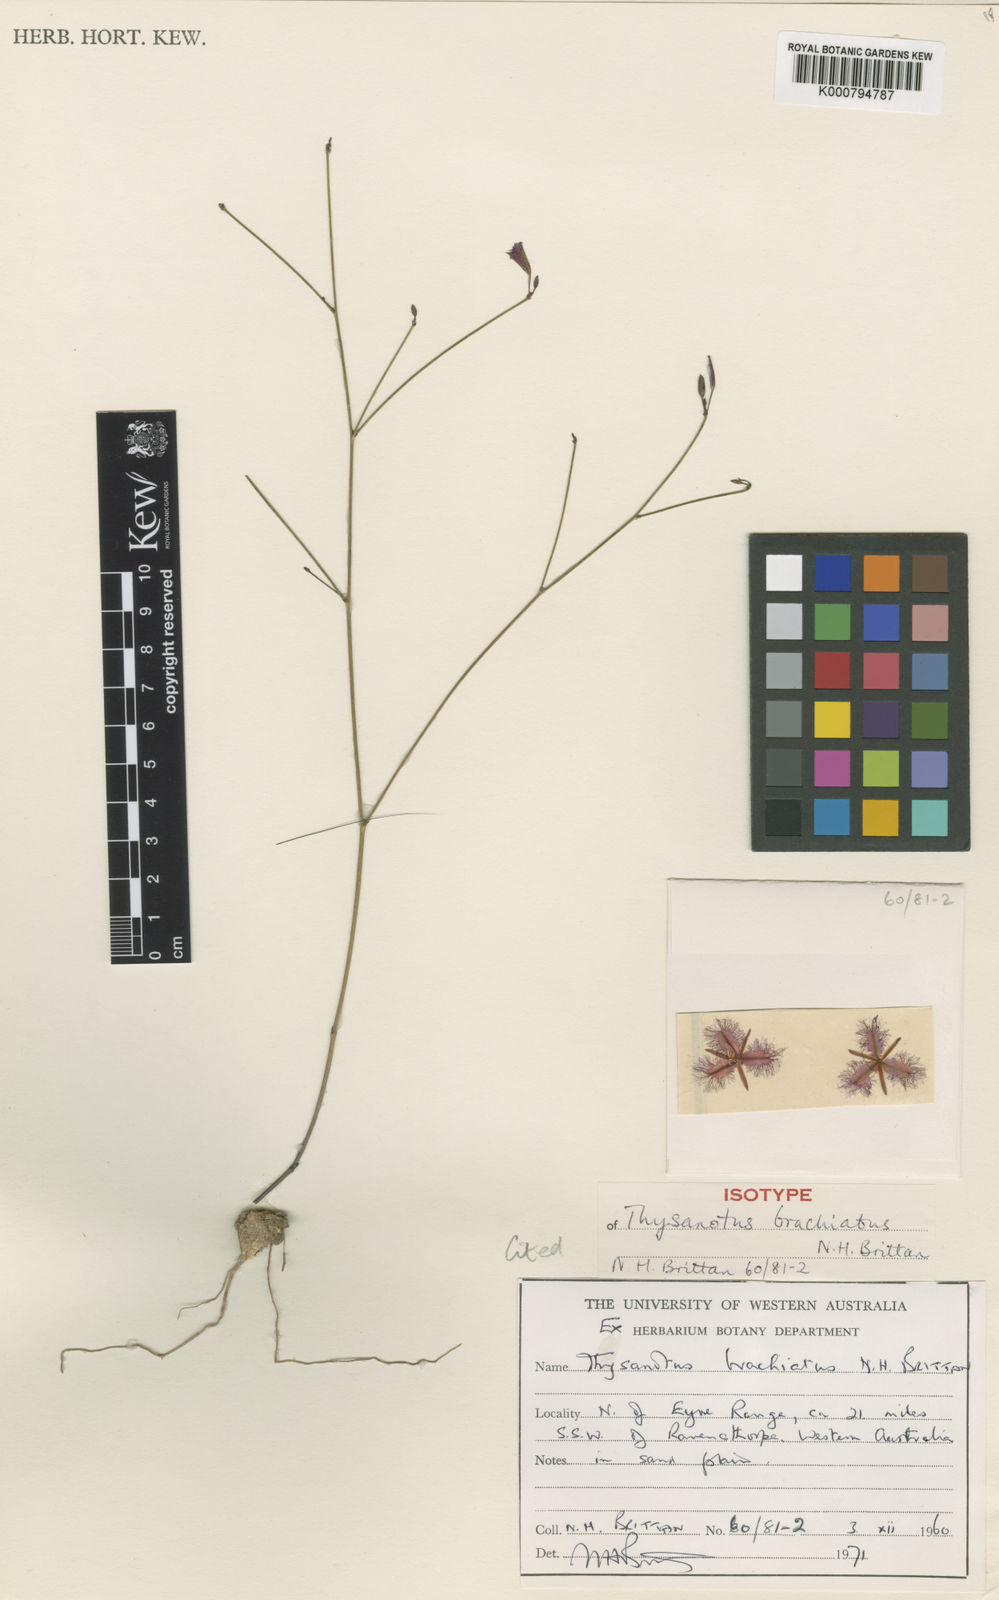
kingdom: Plantae
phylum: Tracheophyta
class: Liliopsida
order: Asparagales
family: Asparagaceae
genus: Thysanotus
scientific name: Thysanotus brachiatus
